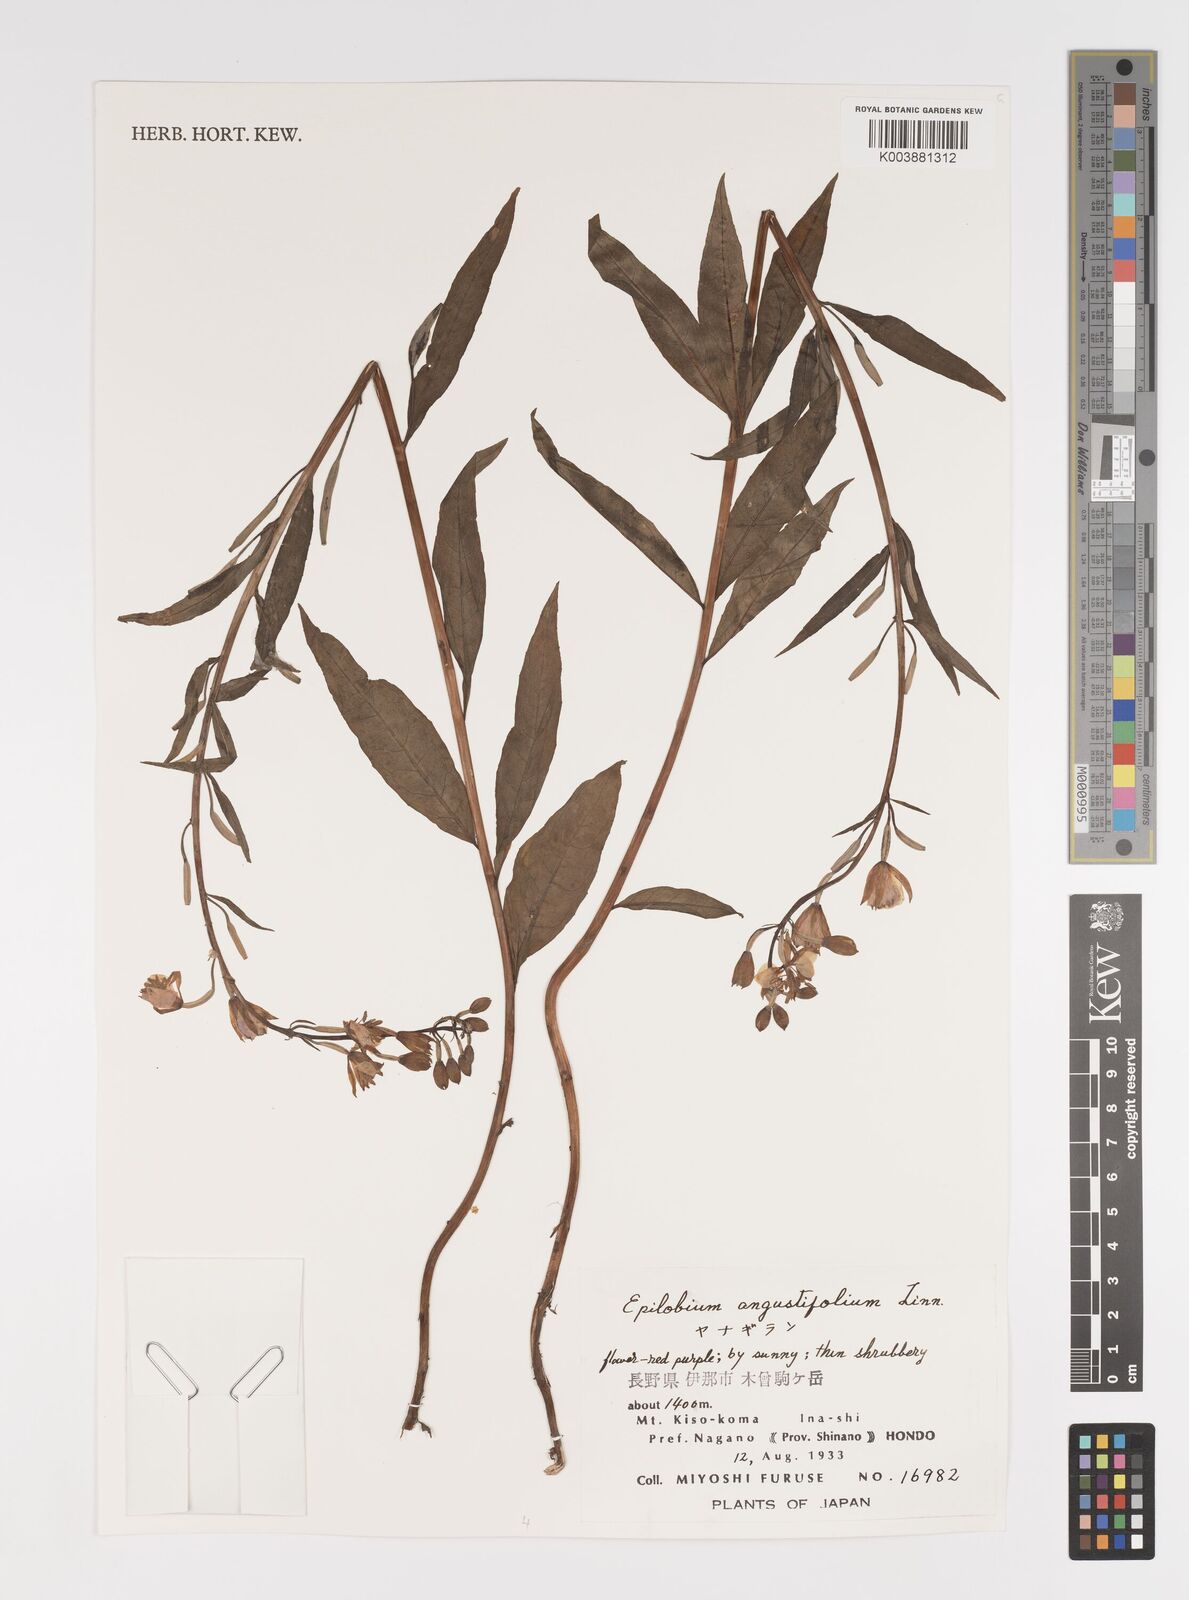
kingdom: Plantae
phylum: Tracheophyta
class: Magnoliopsida
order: Myrtales
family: Onagraceae
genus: Chamaenerion
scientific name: Chamaenerion angustifolium
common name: Fireweed
